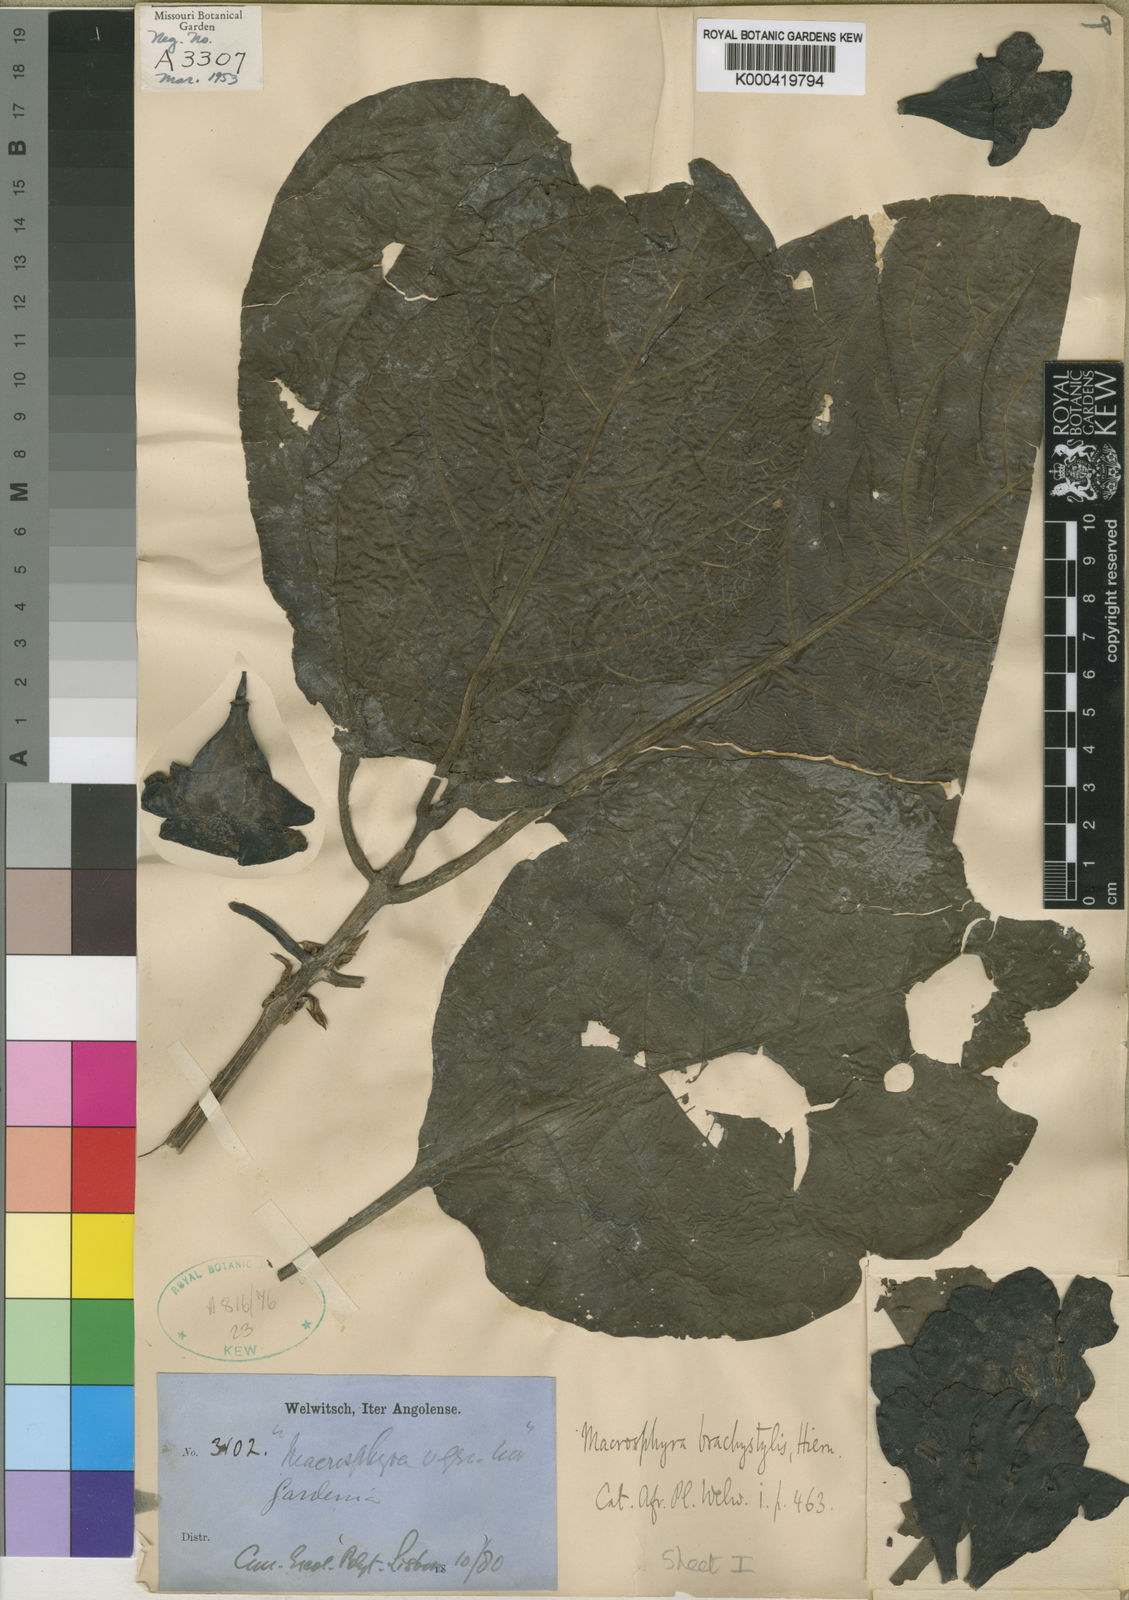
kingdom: Plantae
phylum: Tracheophyta
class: Magnoliopsida
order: Gentianales
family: Rubiaceae
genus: Macrosphyra
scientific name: Macrosphyra brachystylis
